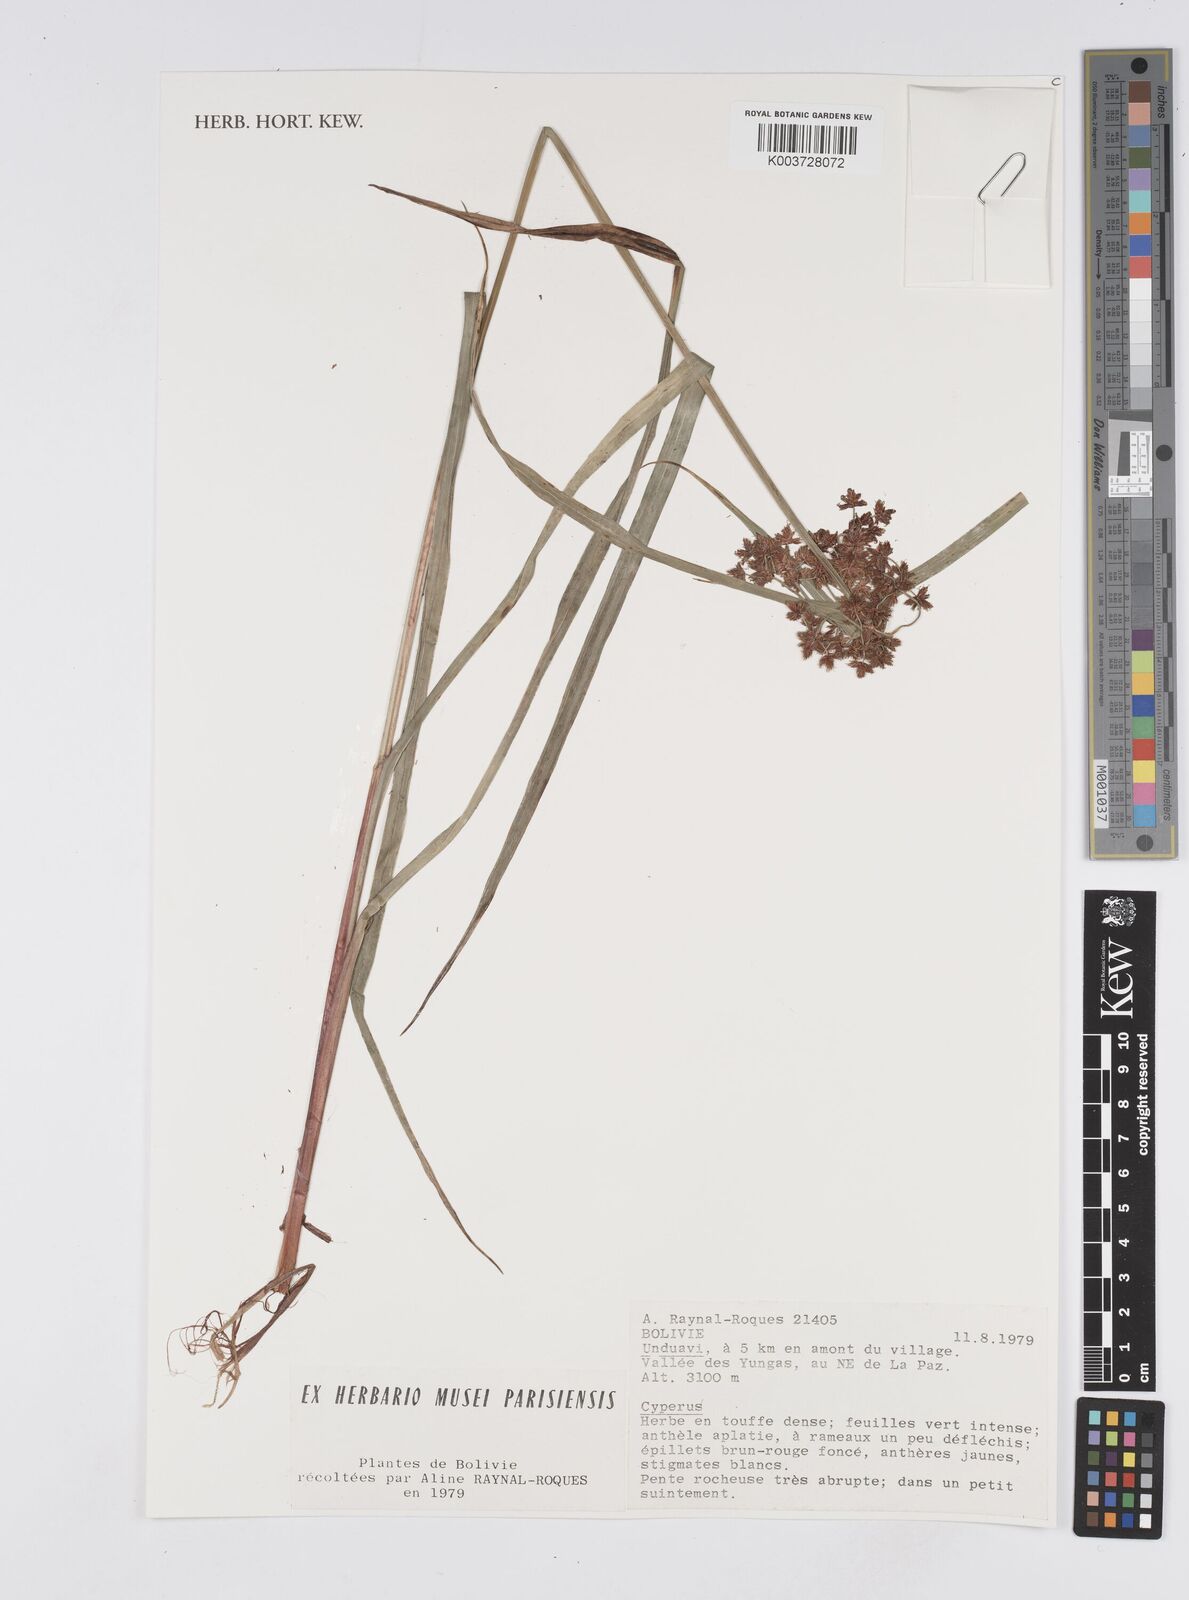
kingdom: Plantae
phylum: Tracheophyta
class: Liliopsida
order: Poales
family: Cyperaceae
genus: Cyperus
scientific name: Cyperus humilis
